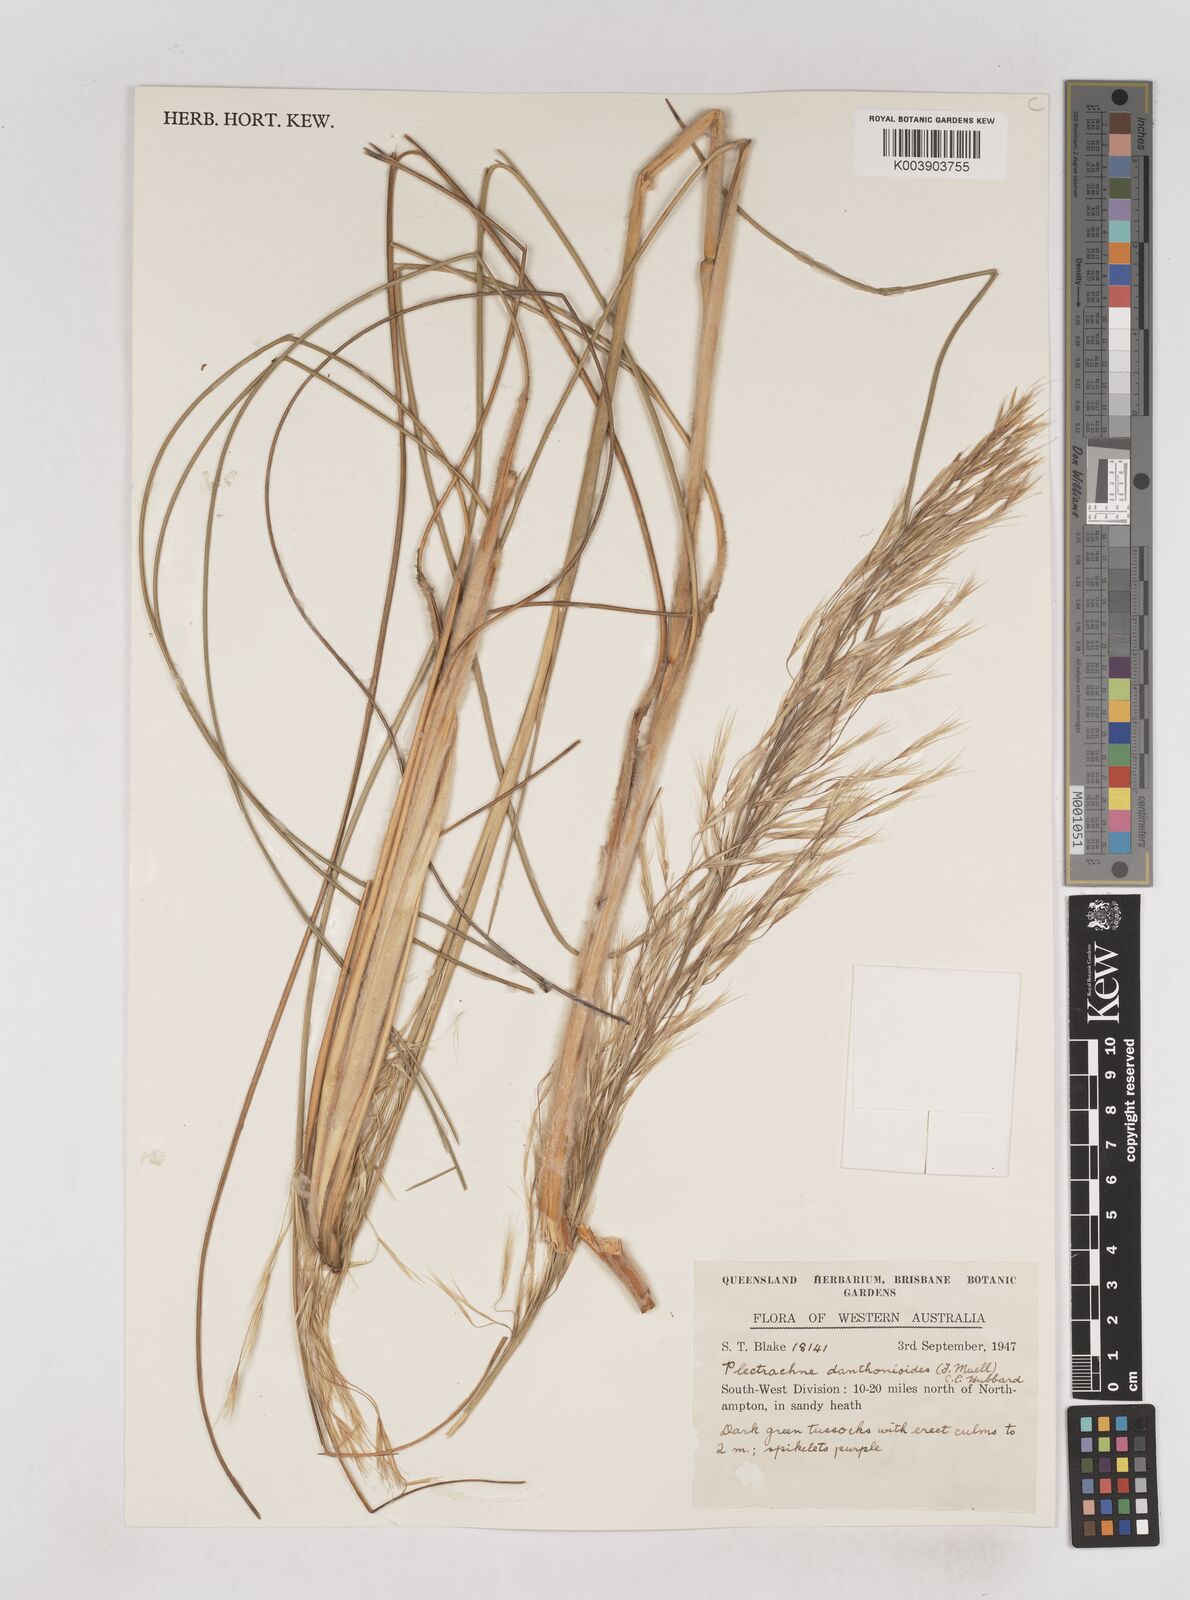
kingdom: Plantae
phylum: Tracheophyta
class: Liliopsida
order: Poales
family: Poaceae
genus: Triodia
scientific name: Triodia danthonioides
